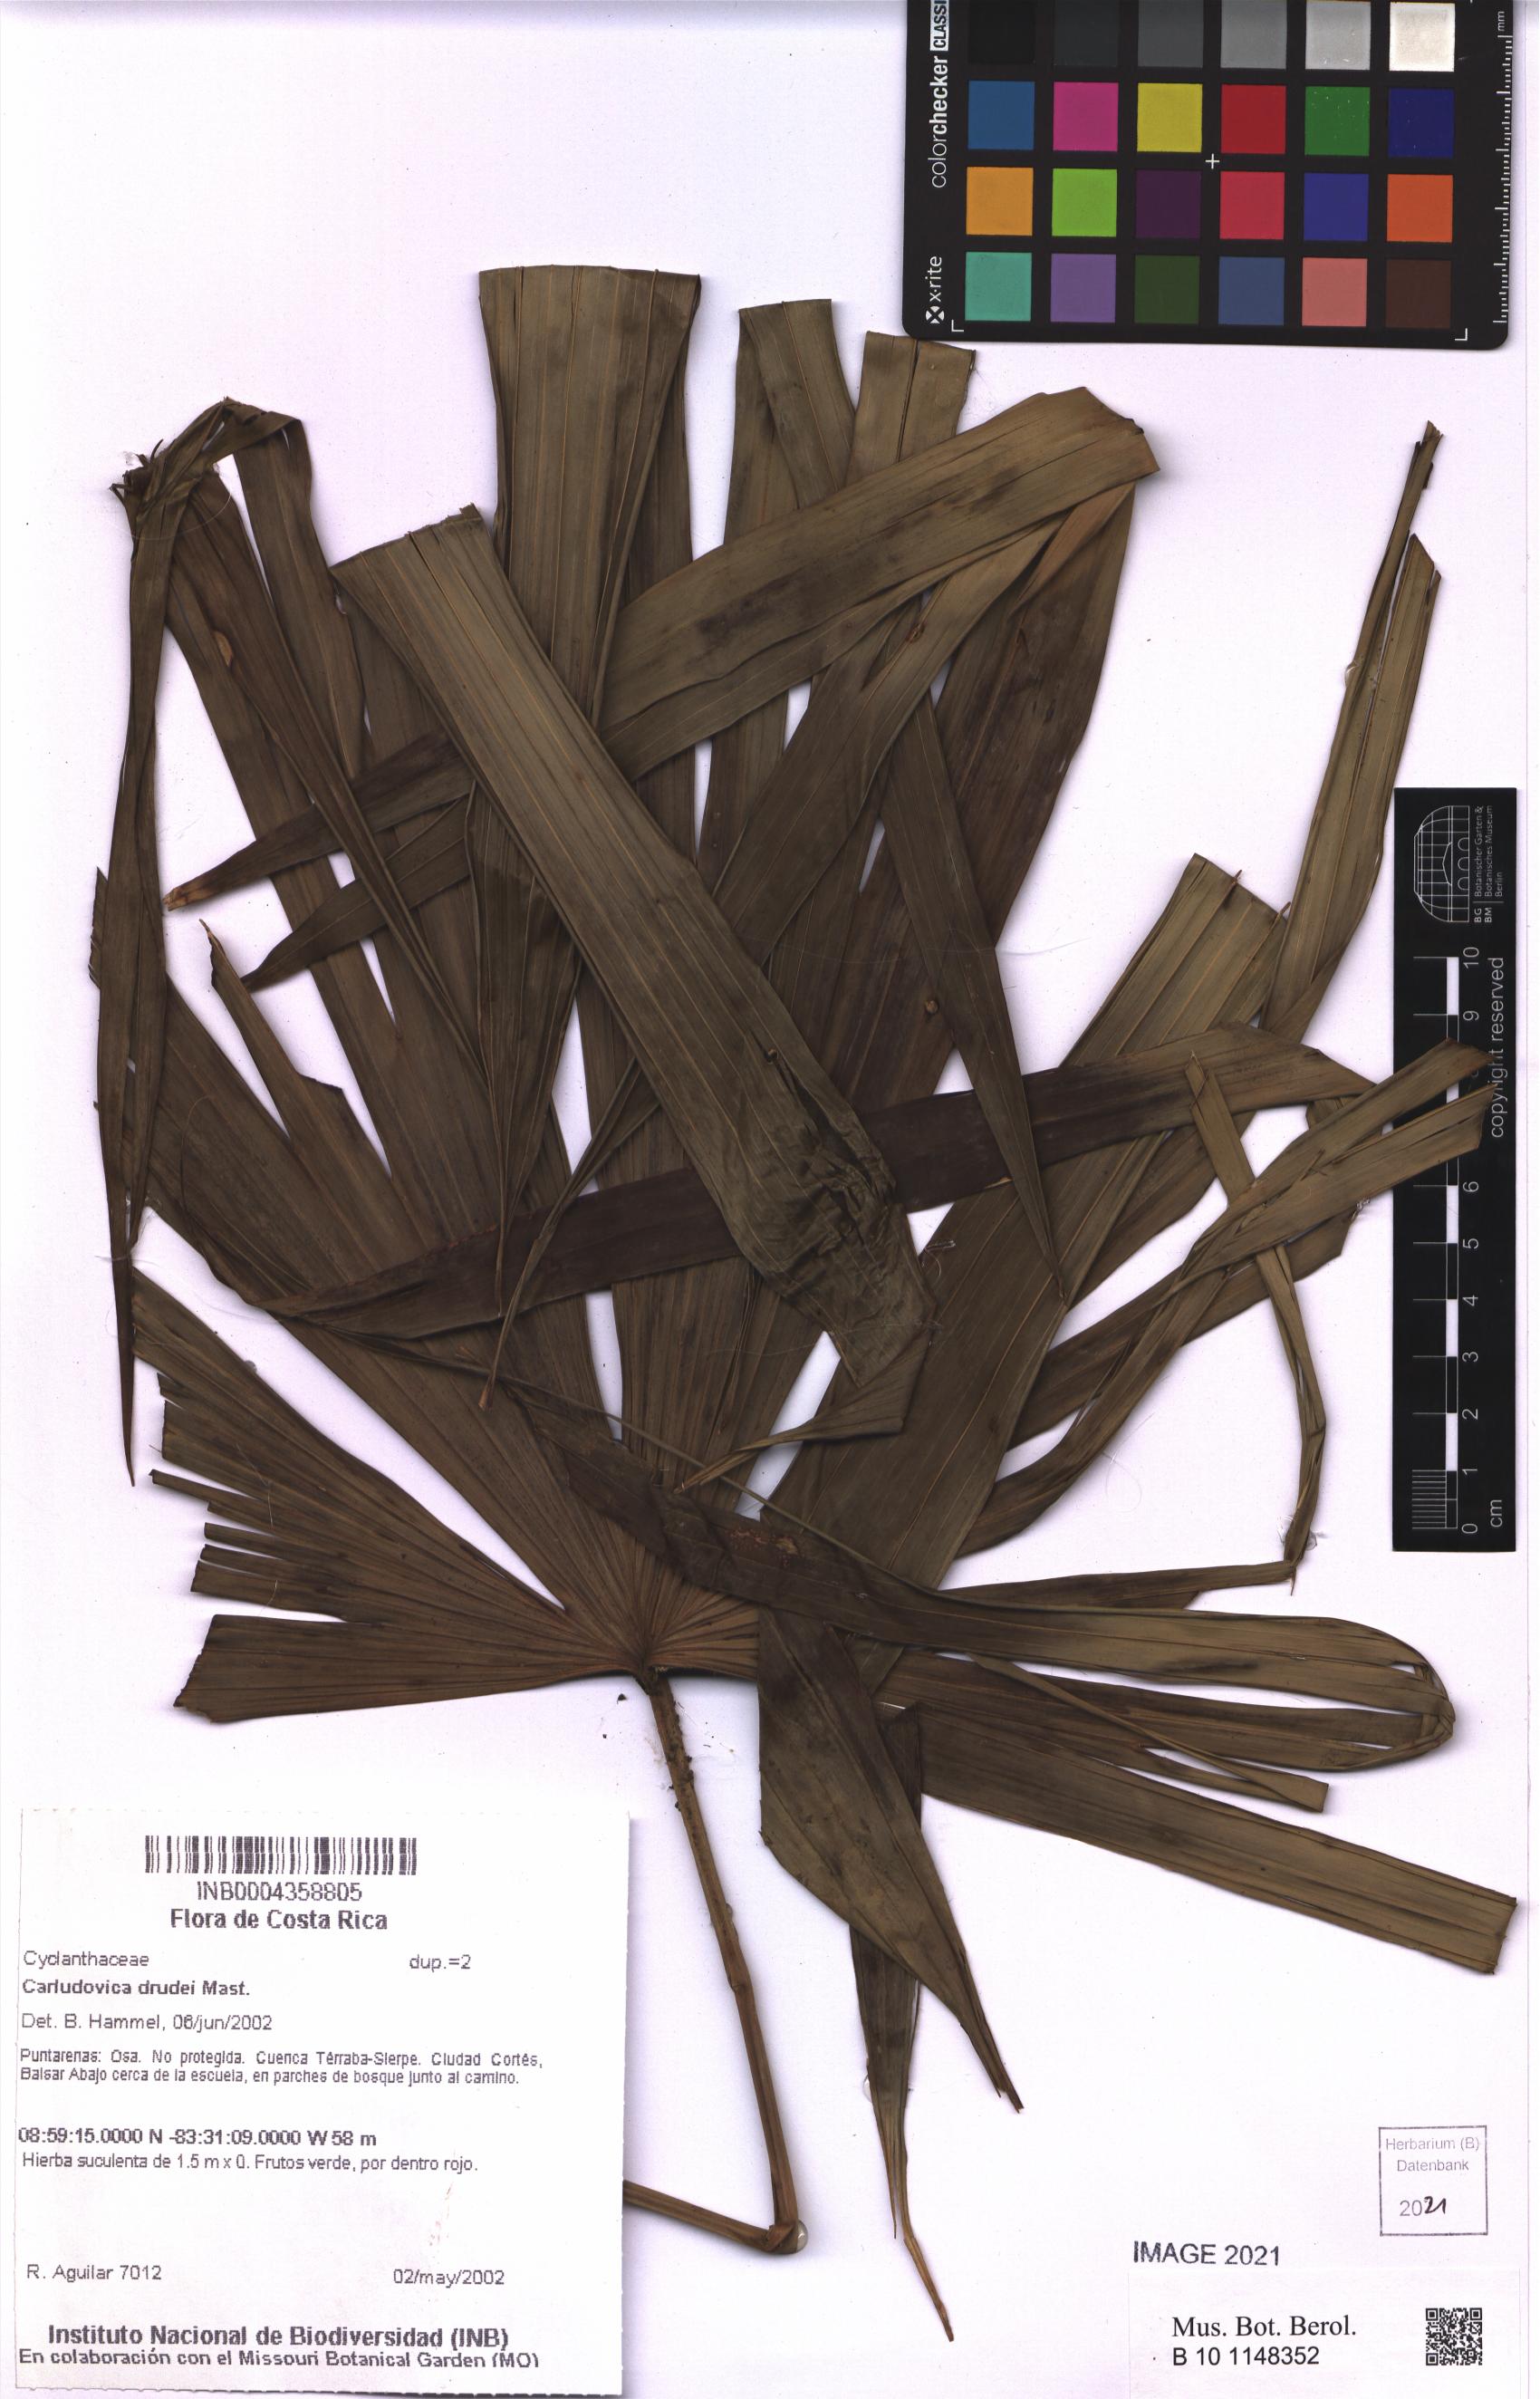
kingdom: Plantae
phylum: Tracheophyta
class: Liliopsida
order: Pandanales
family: Cyclanthaceae
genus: Carludovica
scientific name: Carludovica drudei
